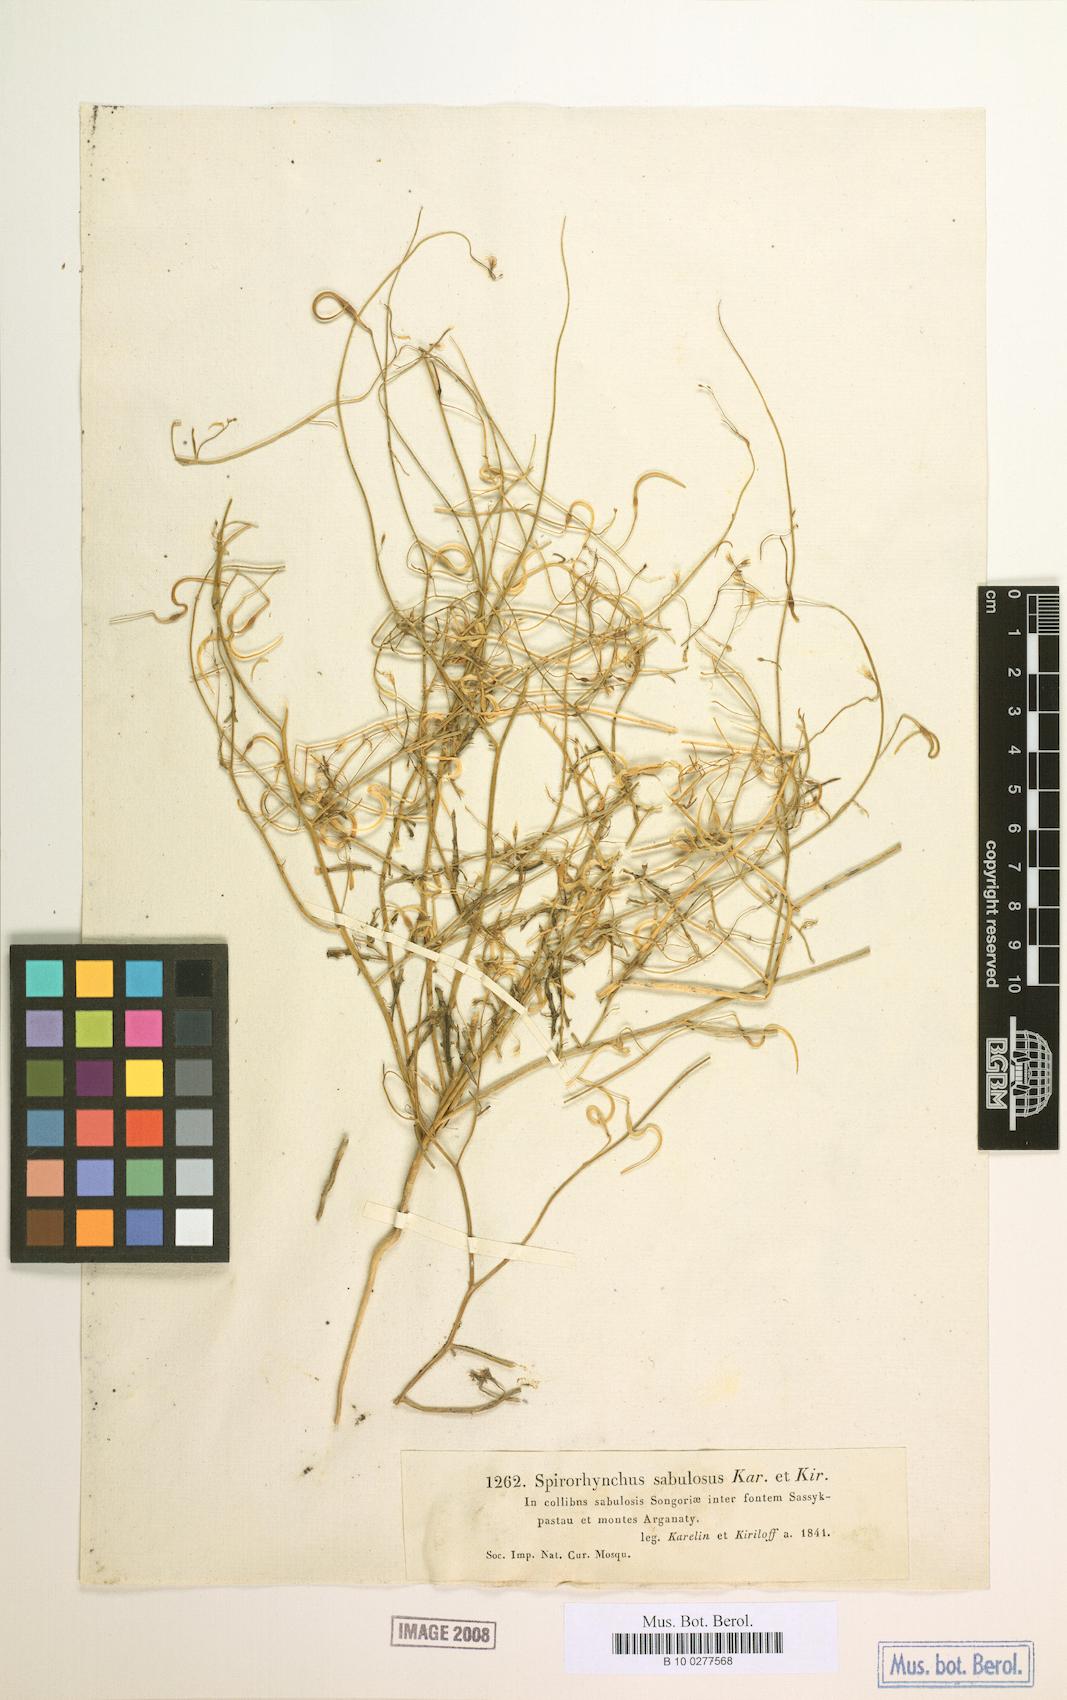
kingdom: Plantae
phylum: Tracheophyta
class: Magnoliopsida
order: Brassicales
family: Brassicaceae
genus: Goldbachia
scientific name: Goldbachia sabulosa
